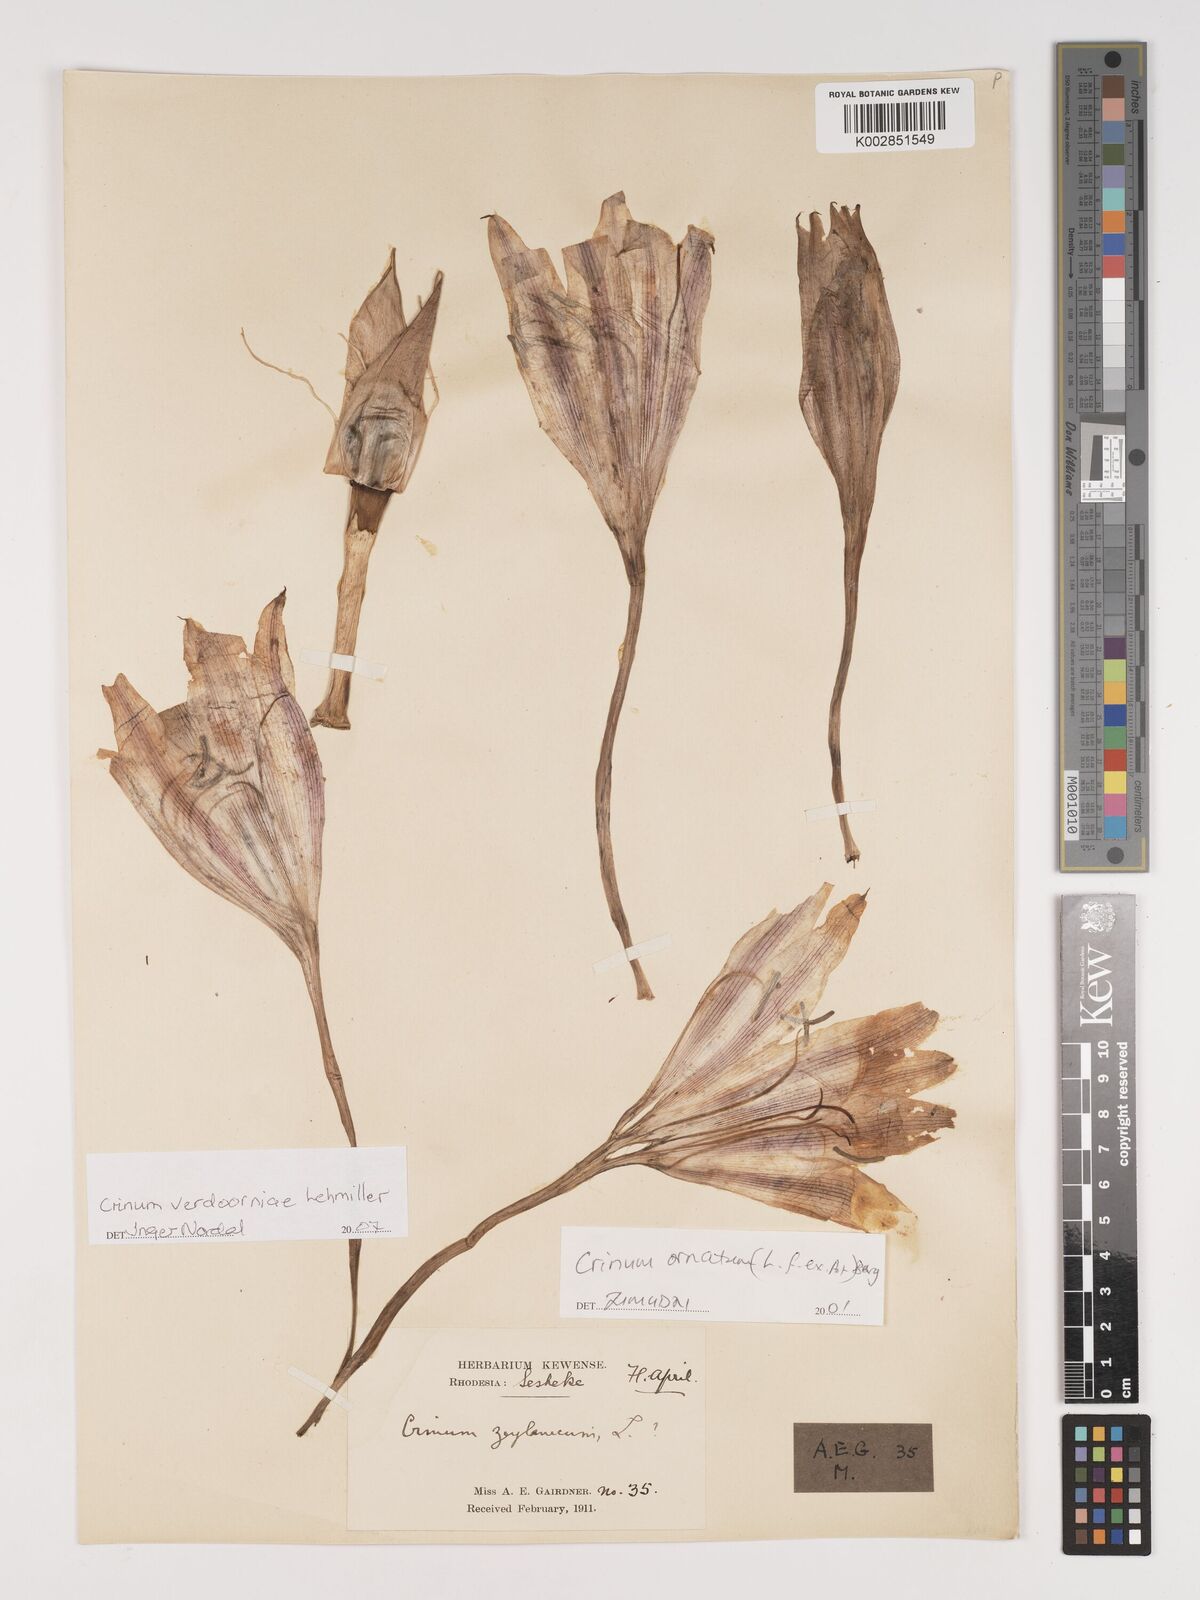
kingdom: Plantae
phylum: Tracheophyta
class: Liliopsida
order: Asparagales
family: Amaryllidaceae
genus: Crinum
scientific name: Crinum verdoorniae
